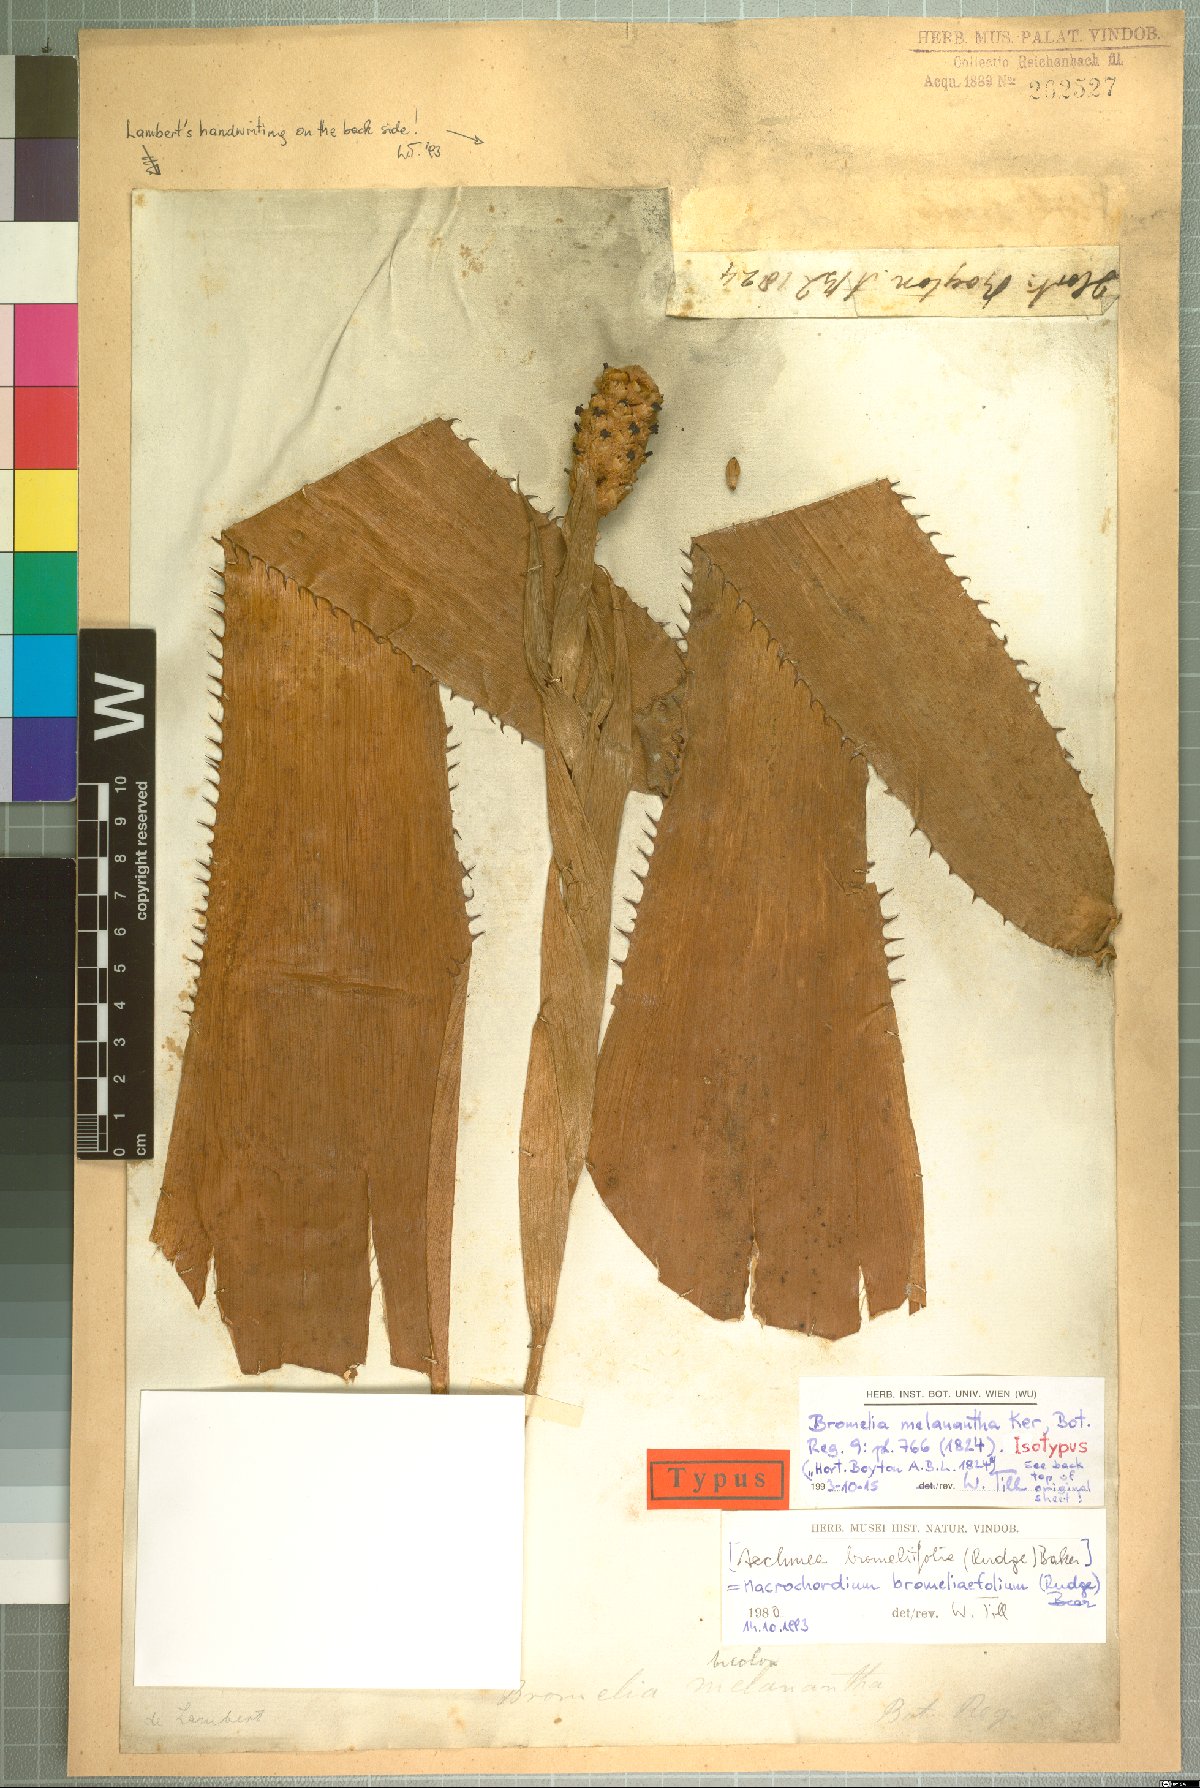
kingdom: Plantae
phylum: Tracheophyta
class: Liliopsida
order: Poales
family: Bromeliaceae
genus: Aechmea
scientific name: Aechmea bromeliifolia
